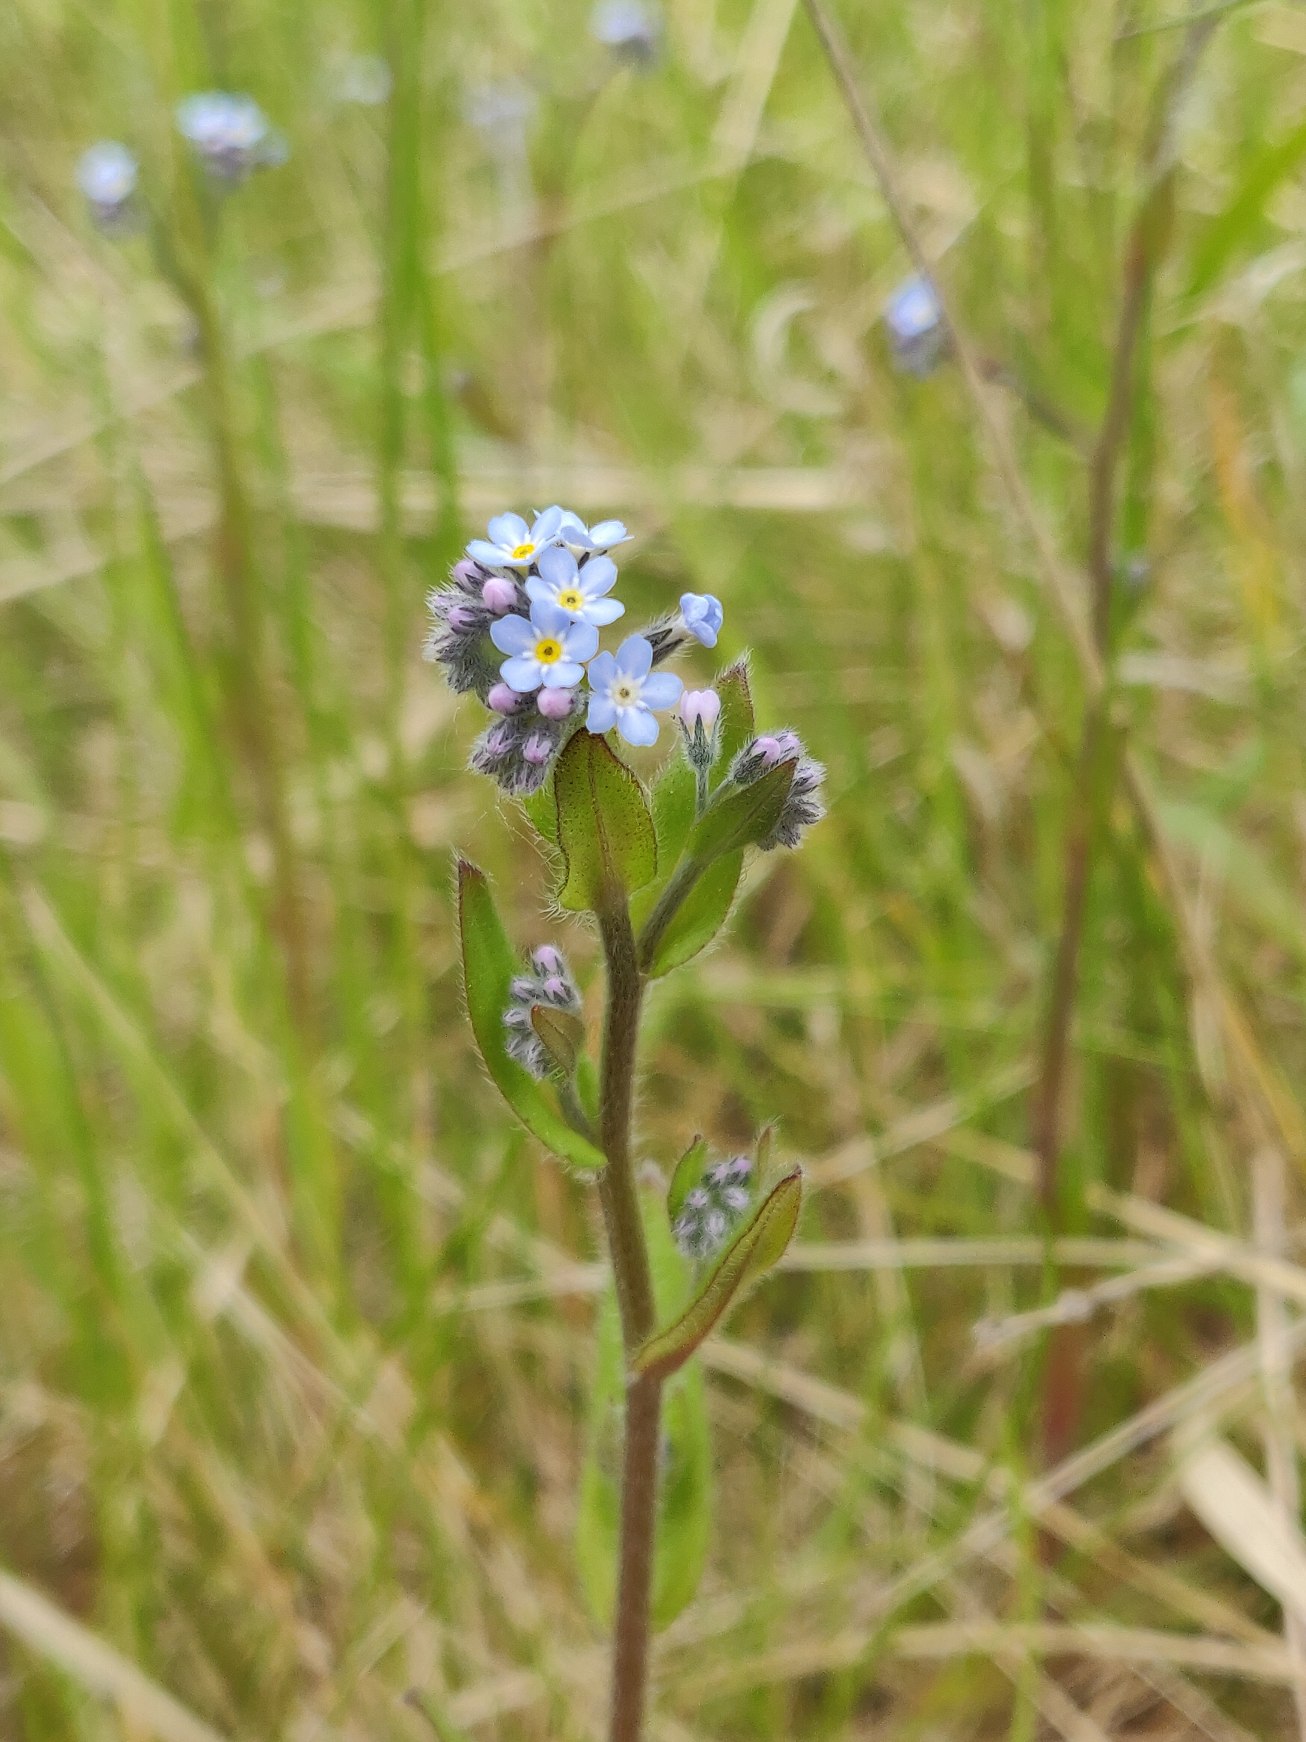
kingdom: Plantae
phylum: Tracheophyta
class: Magnoliopsida
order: Boraginales
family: Boraginaceae
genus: Myosotis
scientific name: Myosotis arvensis
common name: Mark-forglemmigej
